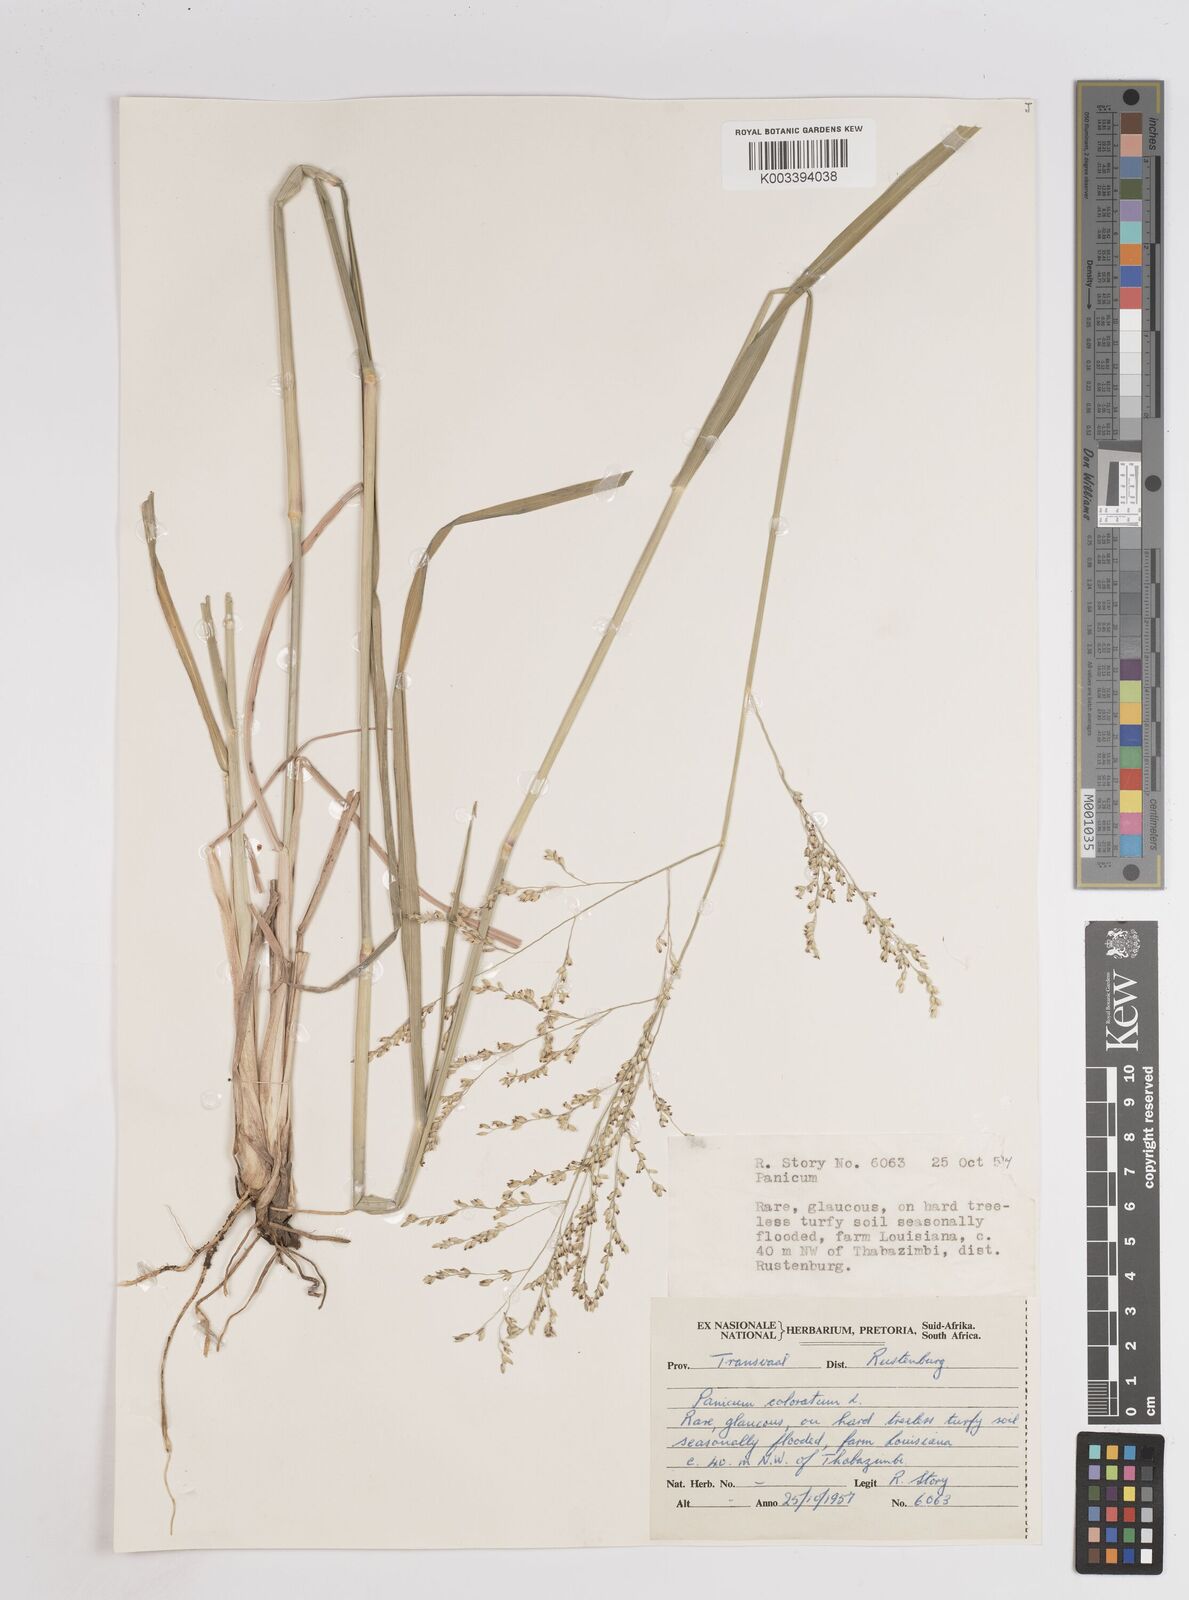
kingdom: Plantae
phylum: Tracheophyta
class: Liliopsida
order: Poales
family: Poaceae
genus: Panicum
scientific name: Panicum coloratum
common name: Kleingrass
